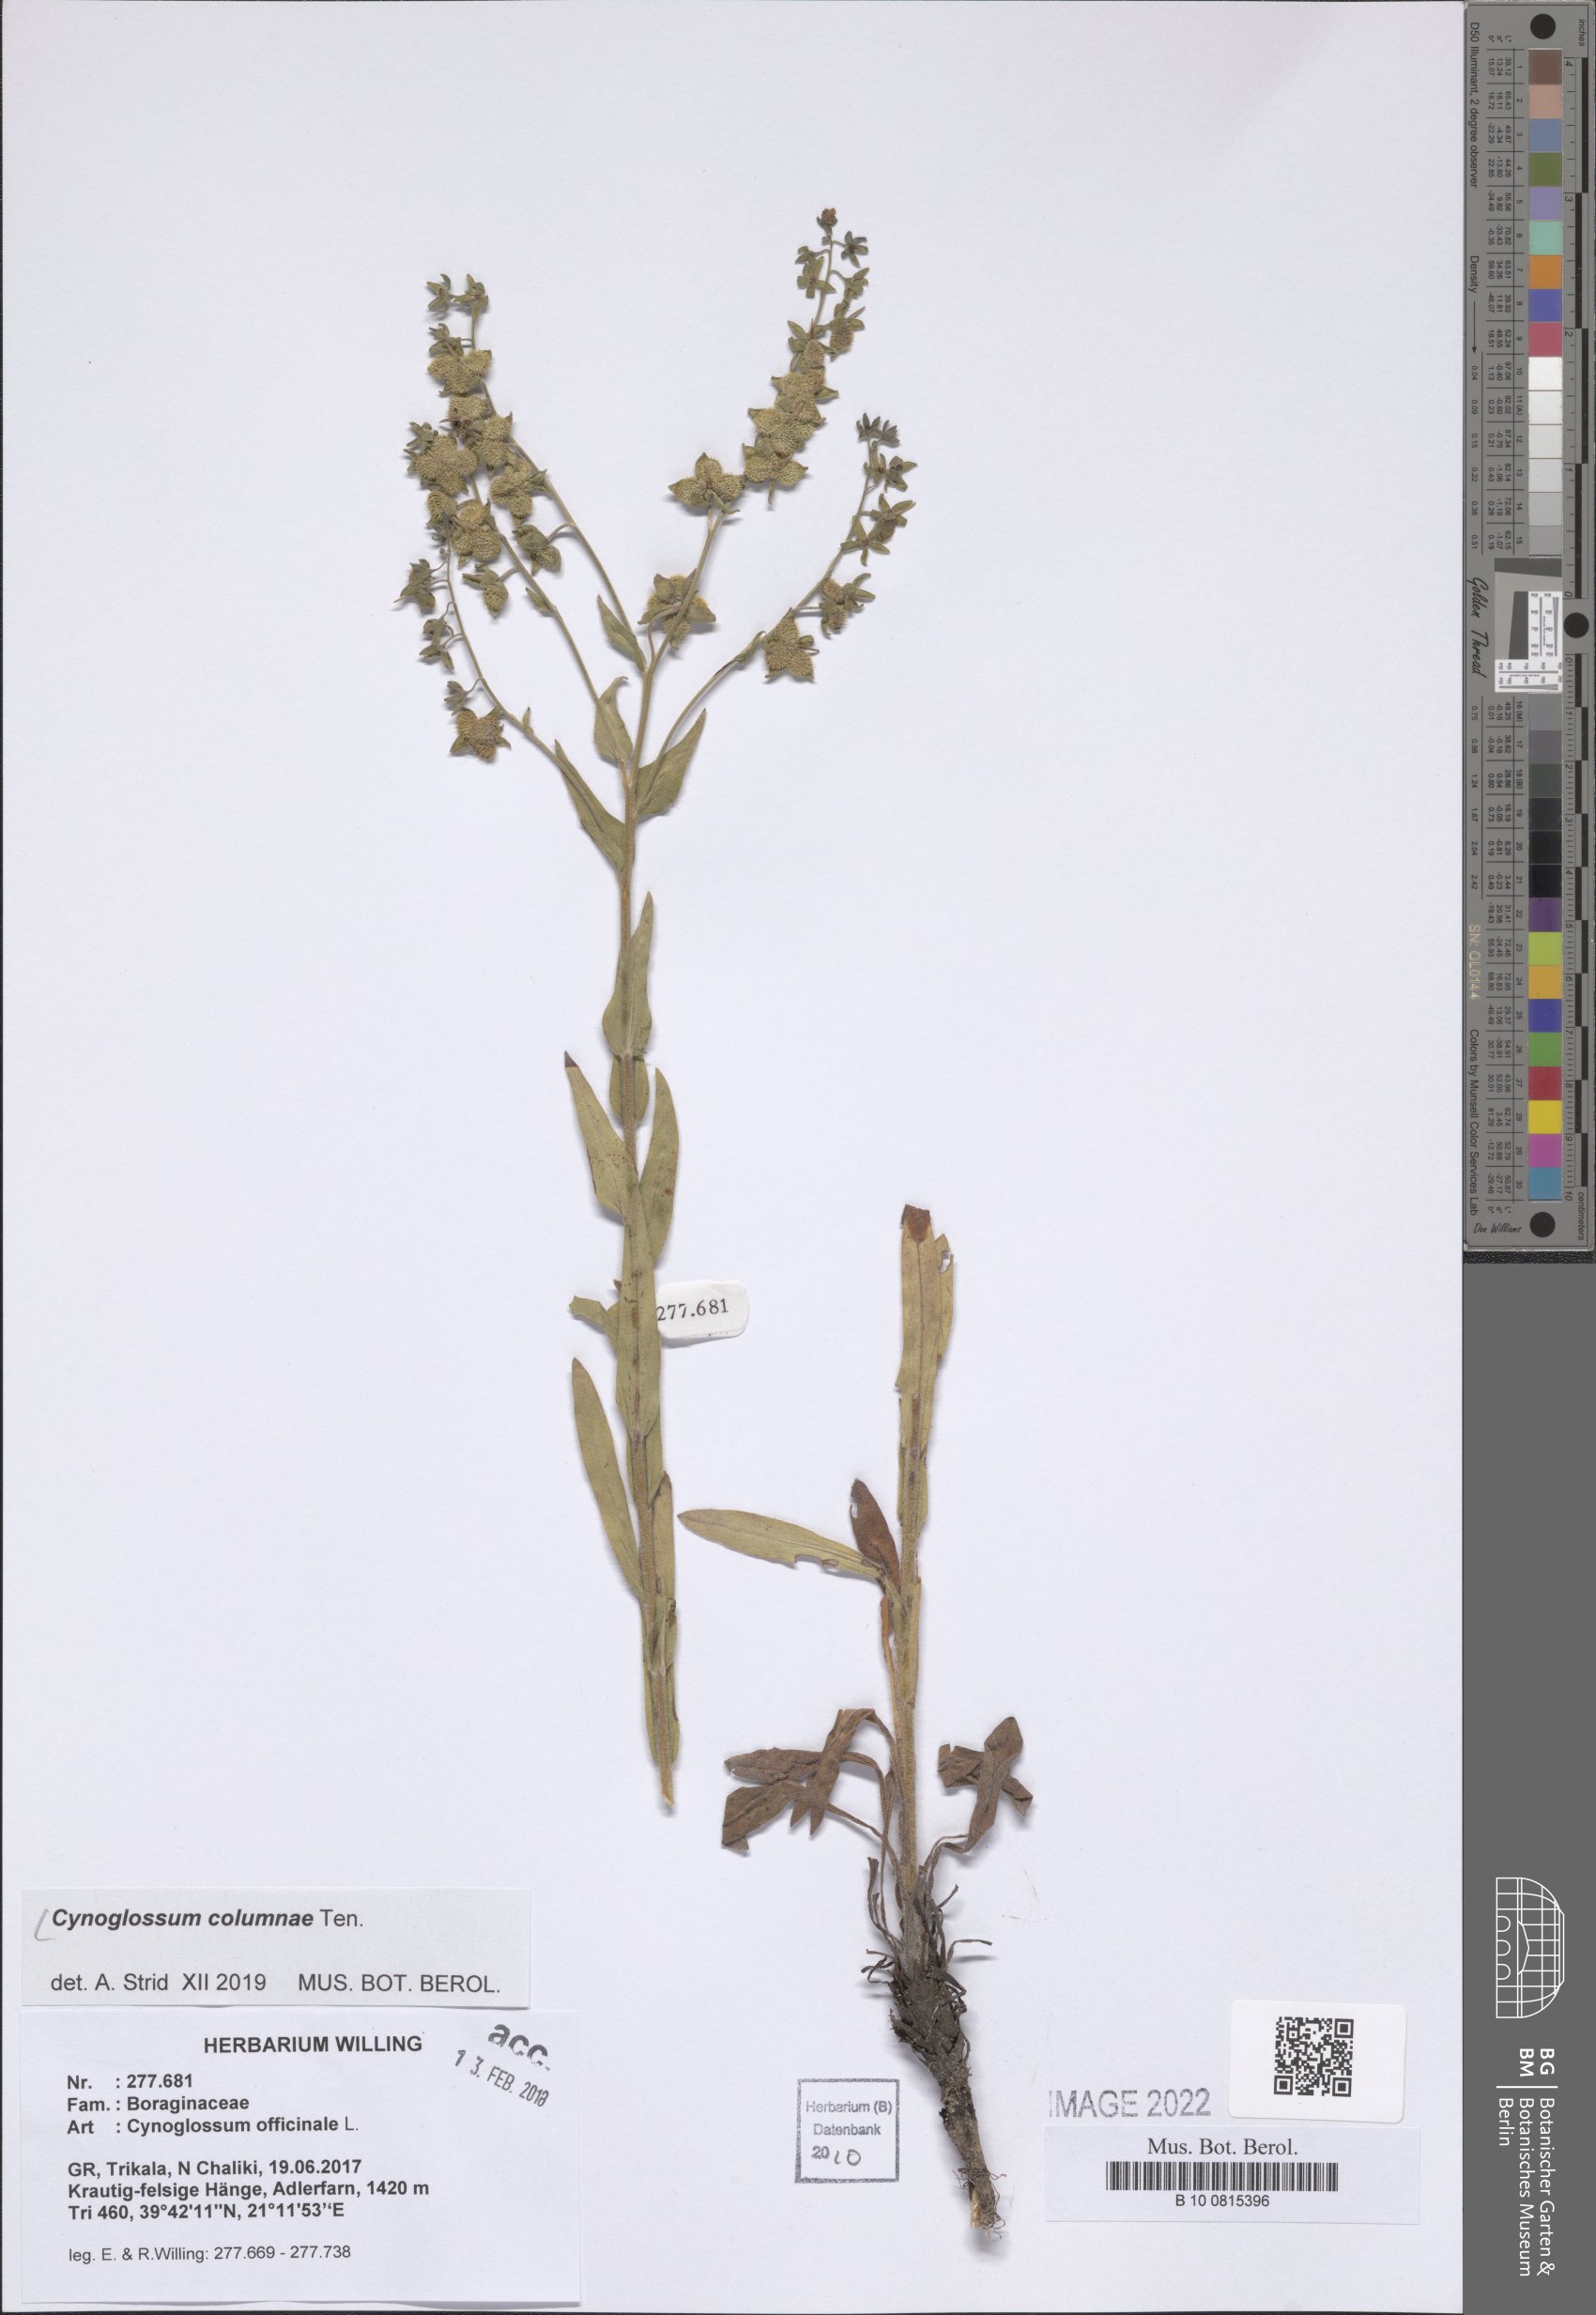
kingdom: Plantae
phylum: Tracheophyta
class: Magnoliopsida
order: Boraginales
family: Boraginaceae
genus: Rindera
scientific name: Rindera columnae
